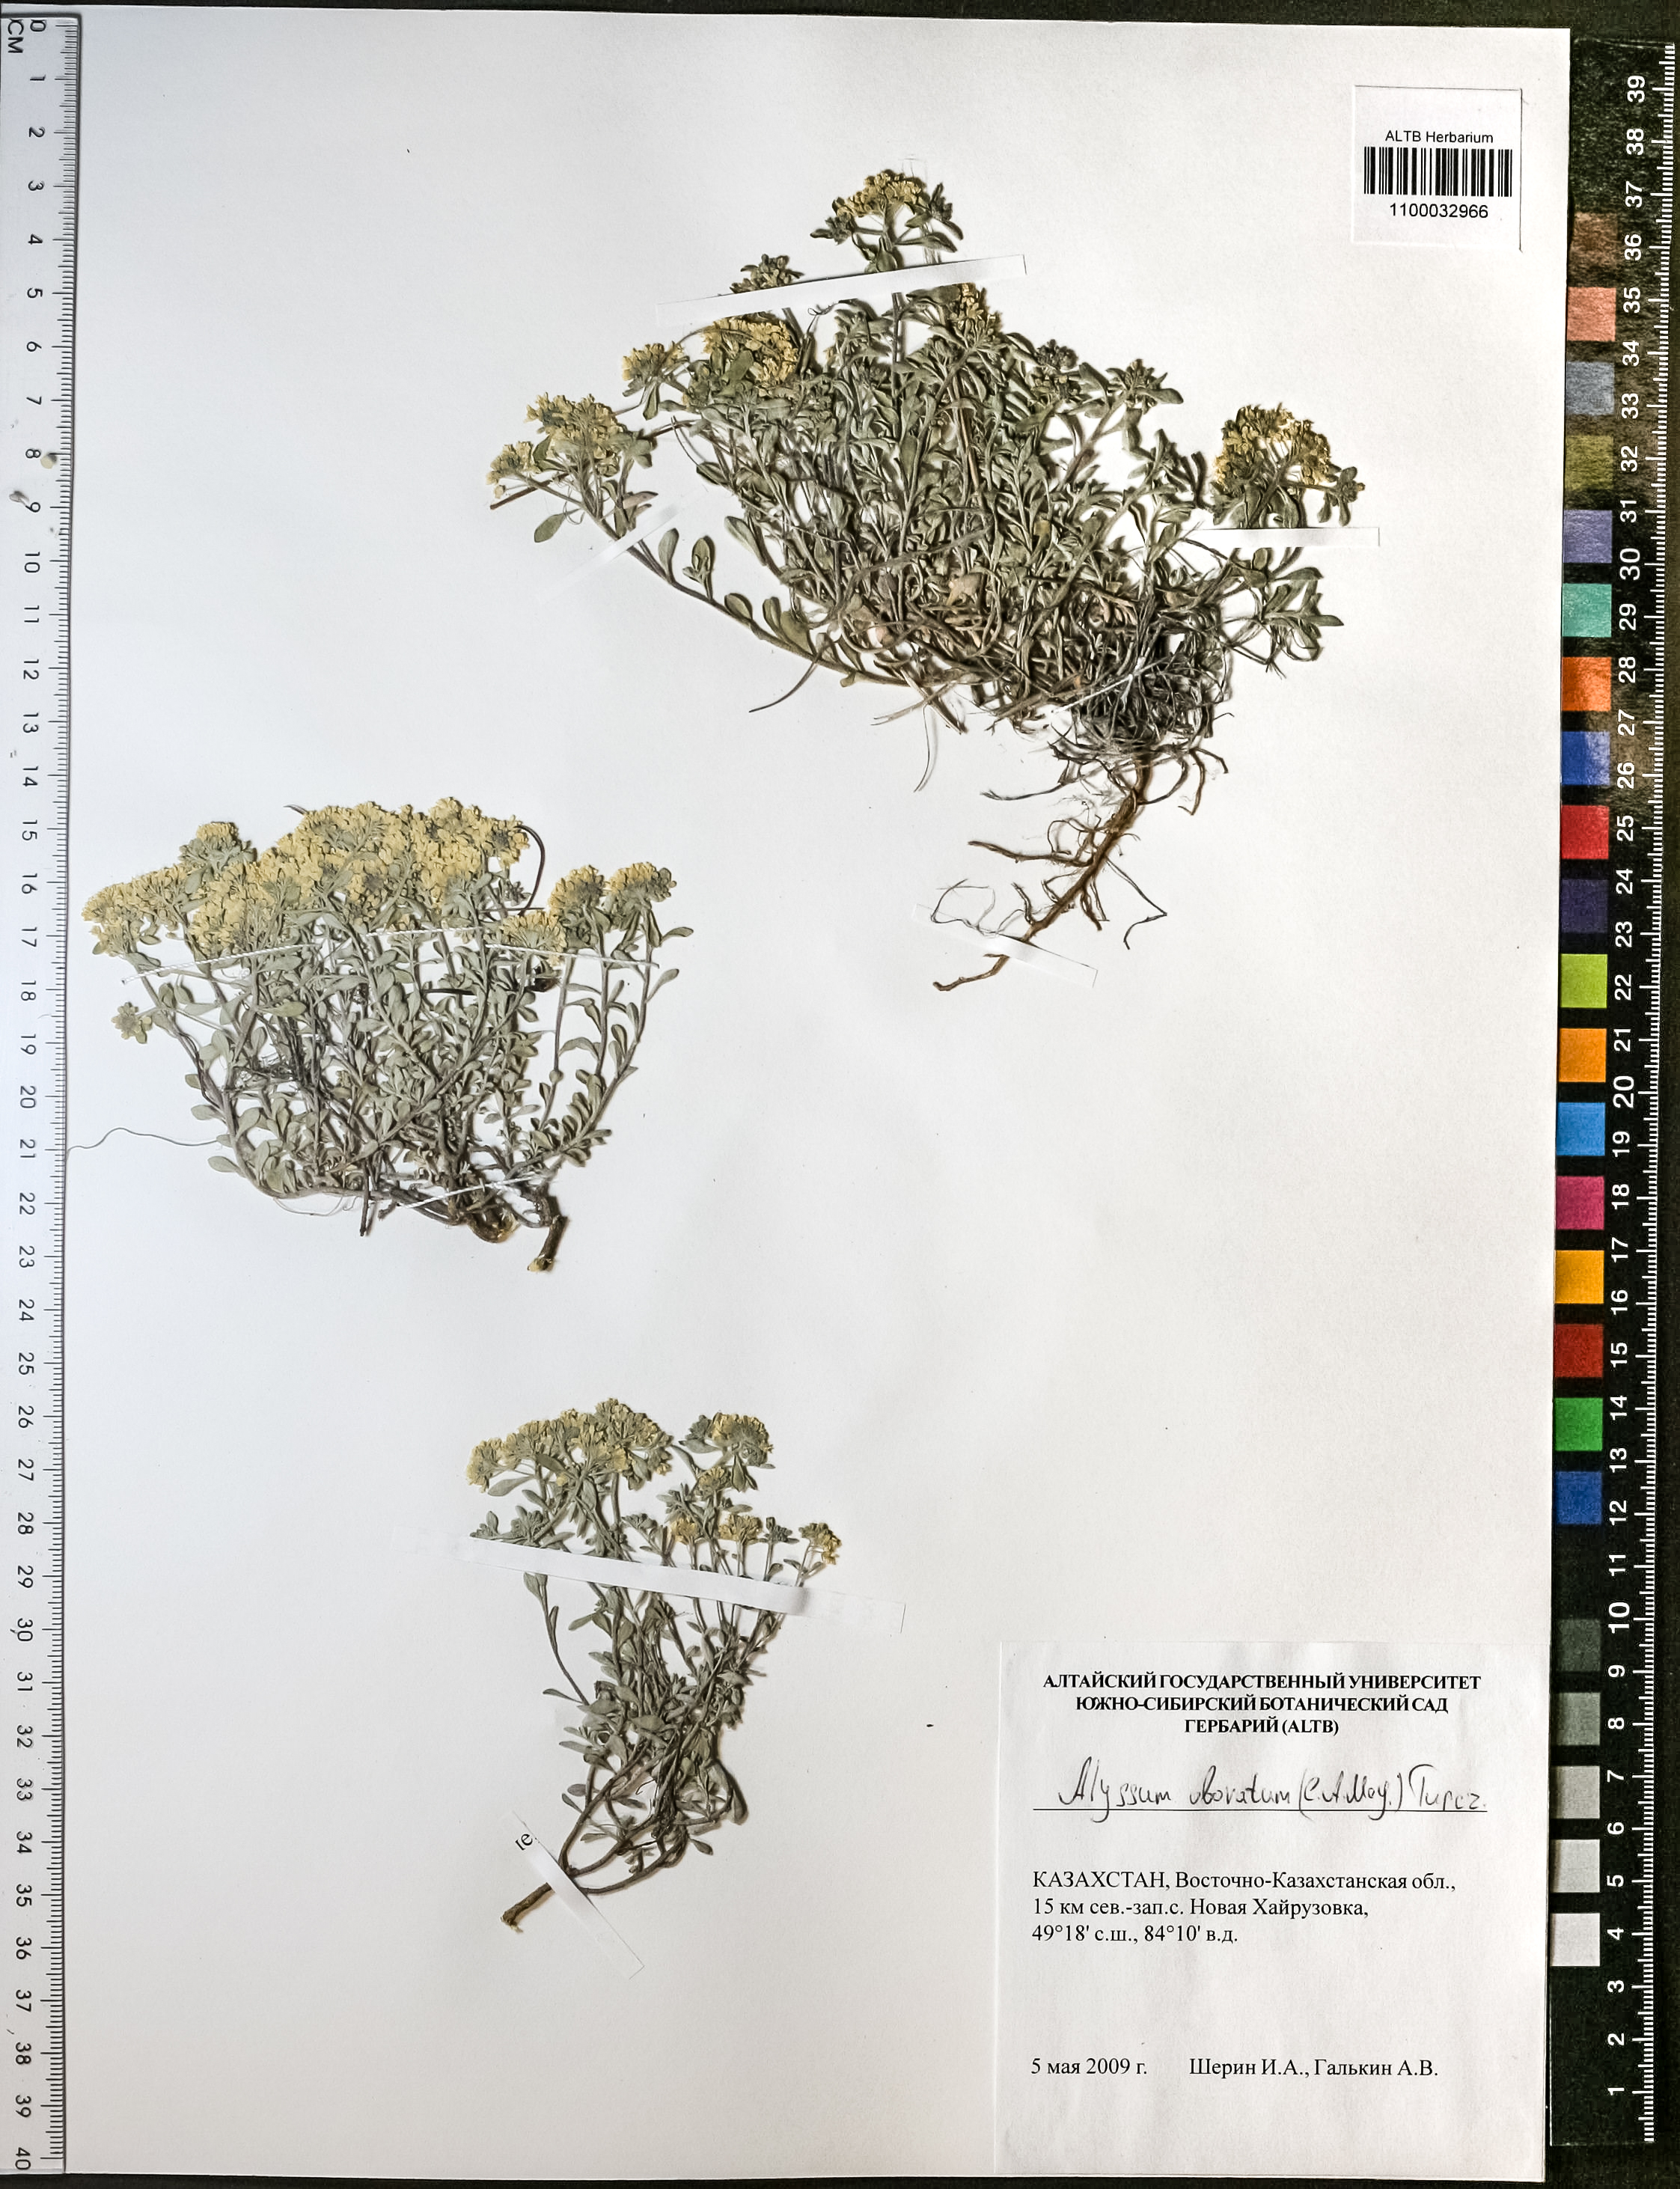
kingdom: Plantae
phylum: Tracheophyta
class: Magnoliopsida
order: Brassicales
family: Brassicaceae
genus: Odontarrhena
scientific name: Odontarrhena obovata
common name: American alyssum
